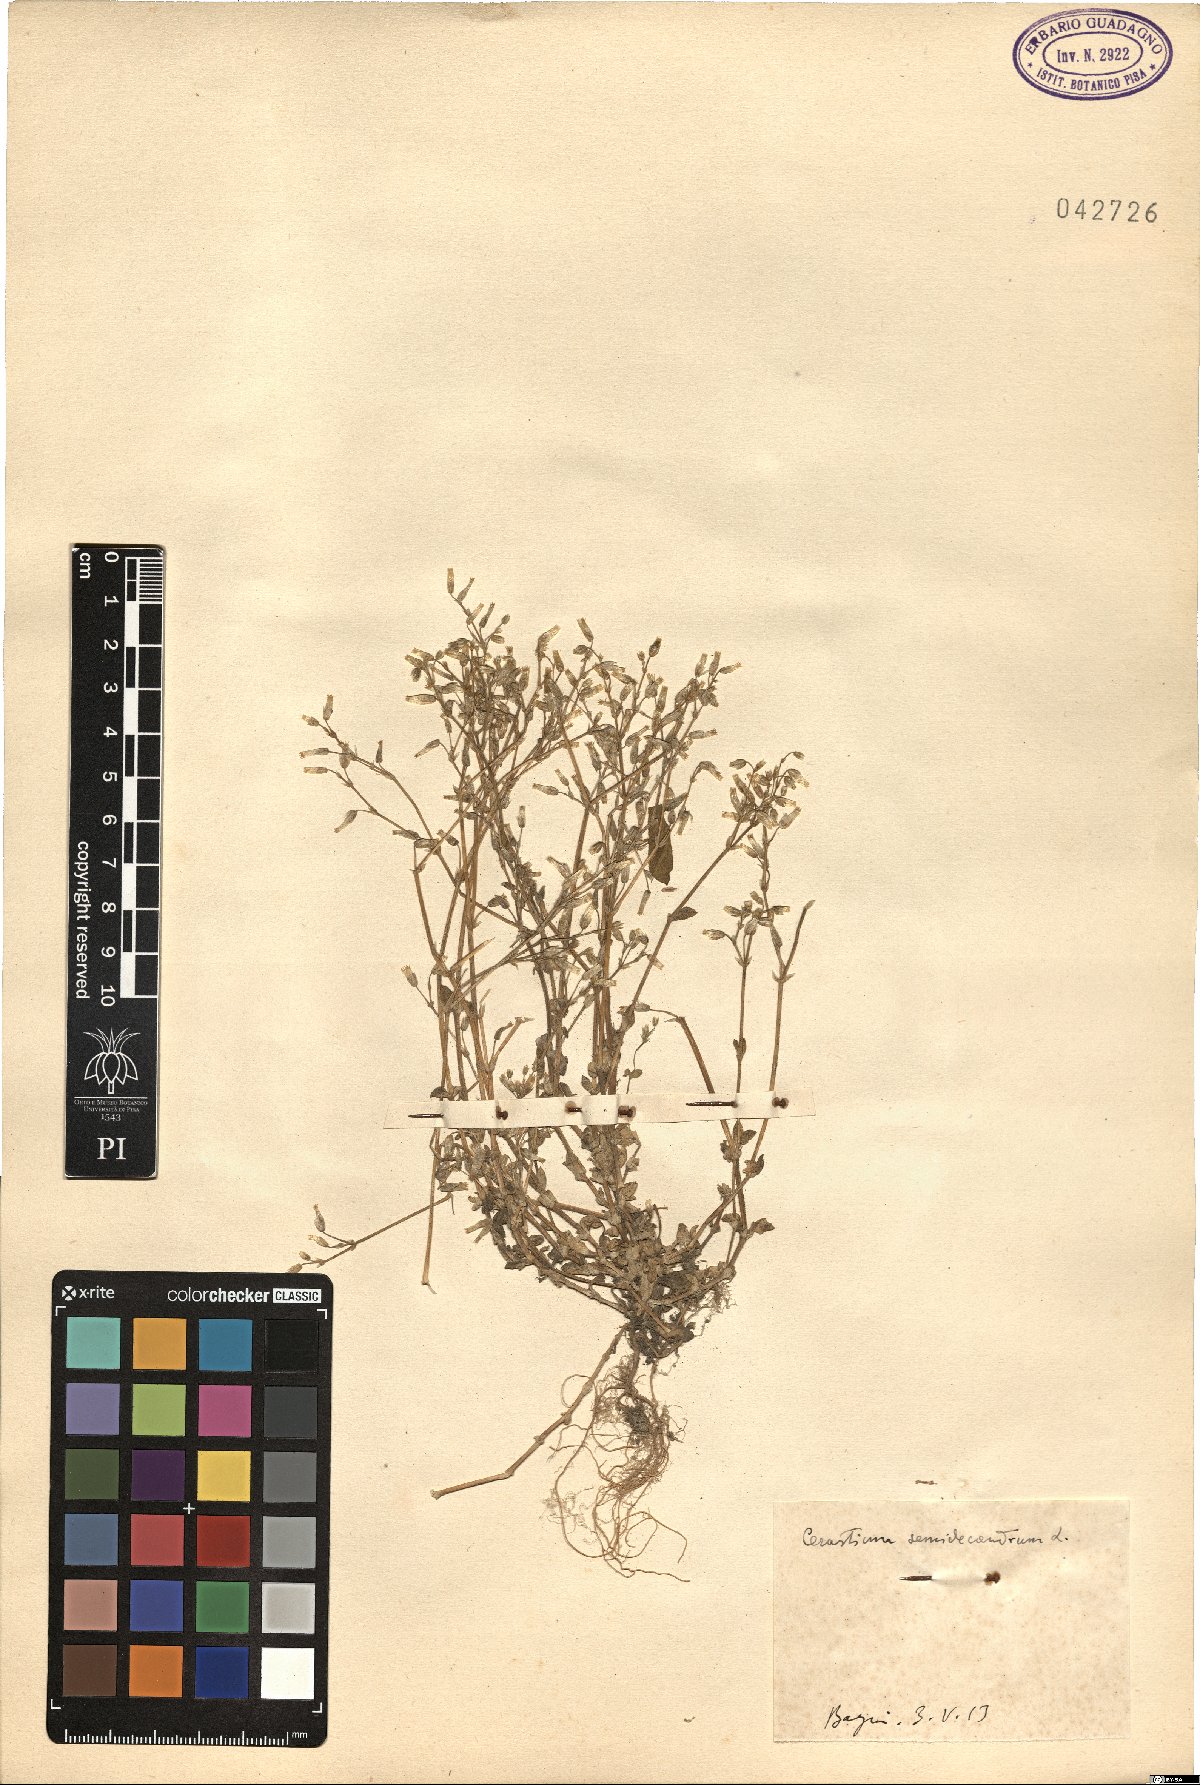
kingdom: Plantae
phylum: Tracheophyta
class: Magnoliopsida
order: Caryophyllales
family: Caryophyllaceae
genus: Cerastium
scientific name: Cerastium semidecandrum
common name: Little mouse-ear
